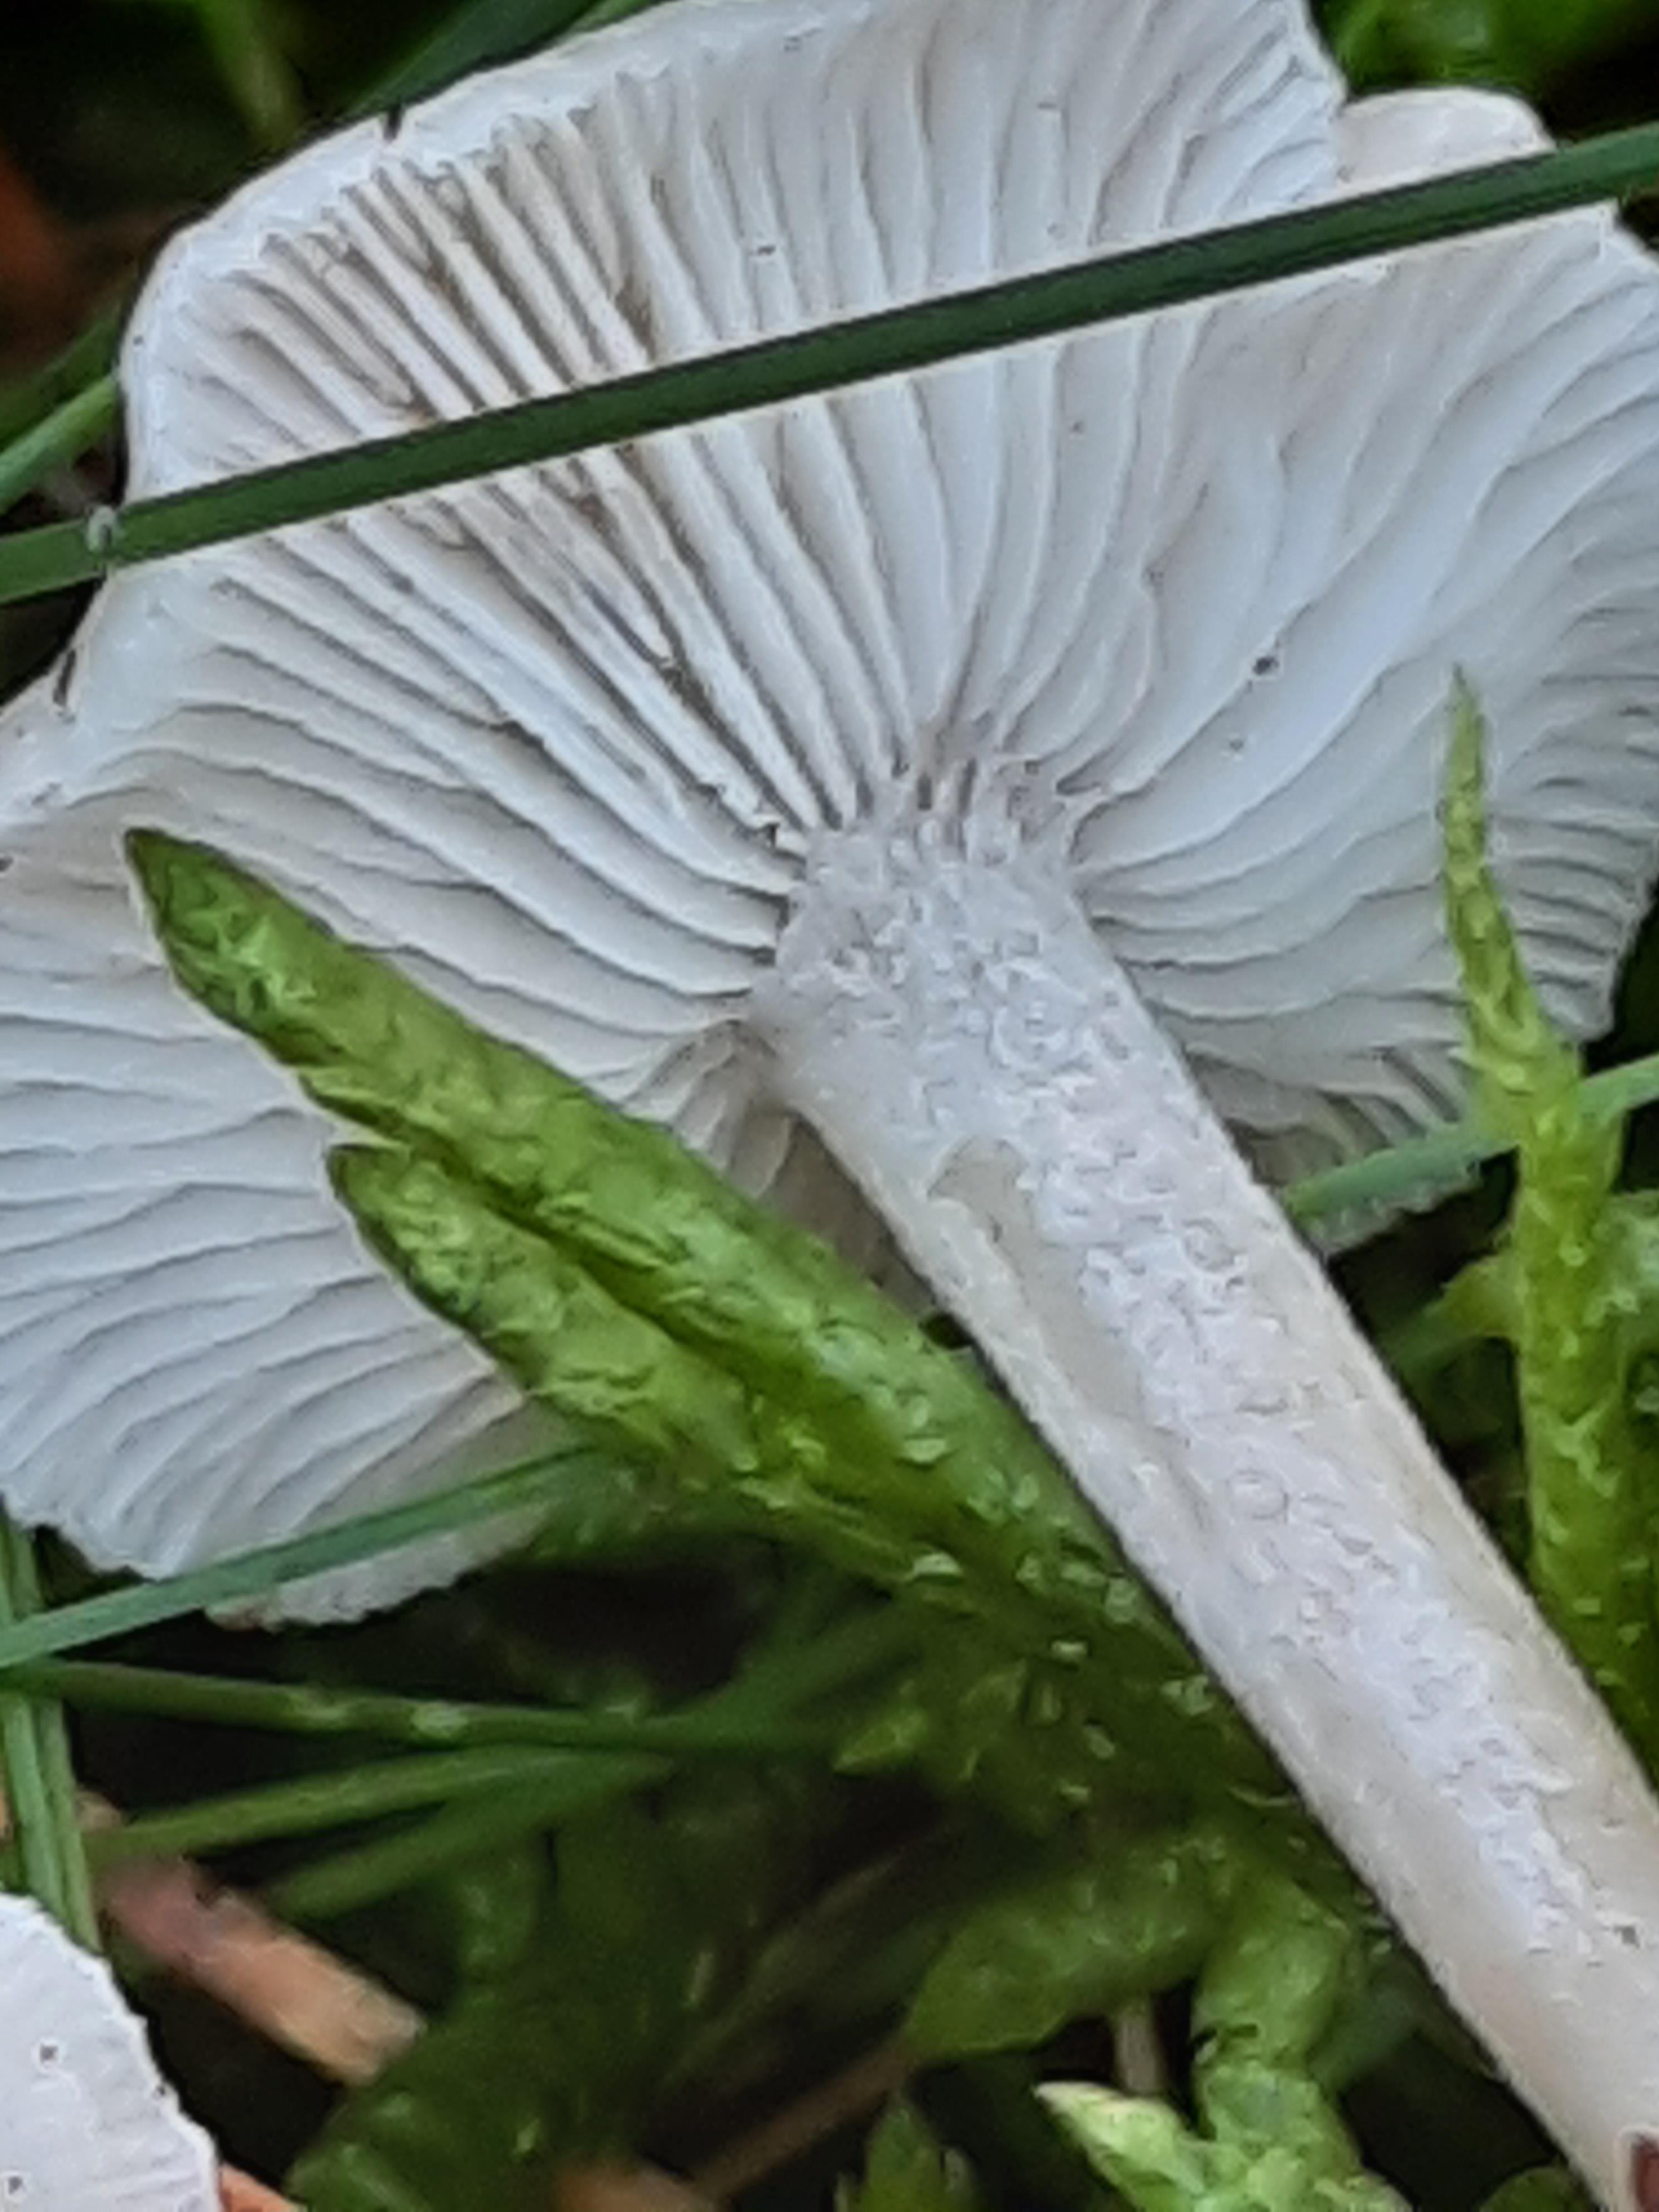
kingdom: Fungi
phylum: Basidiomycota
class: Agaricomycetes
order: Agaricales
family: Tricholomataceae
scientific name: Tricholomataceae
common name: ridderhatfamilien
